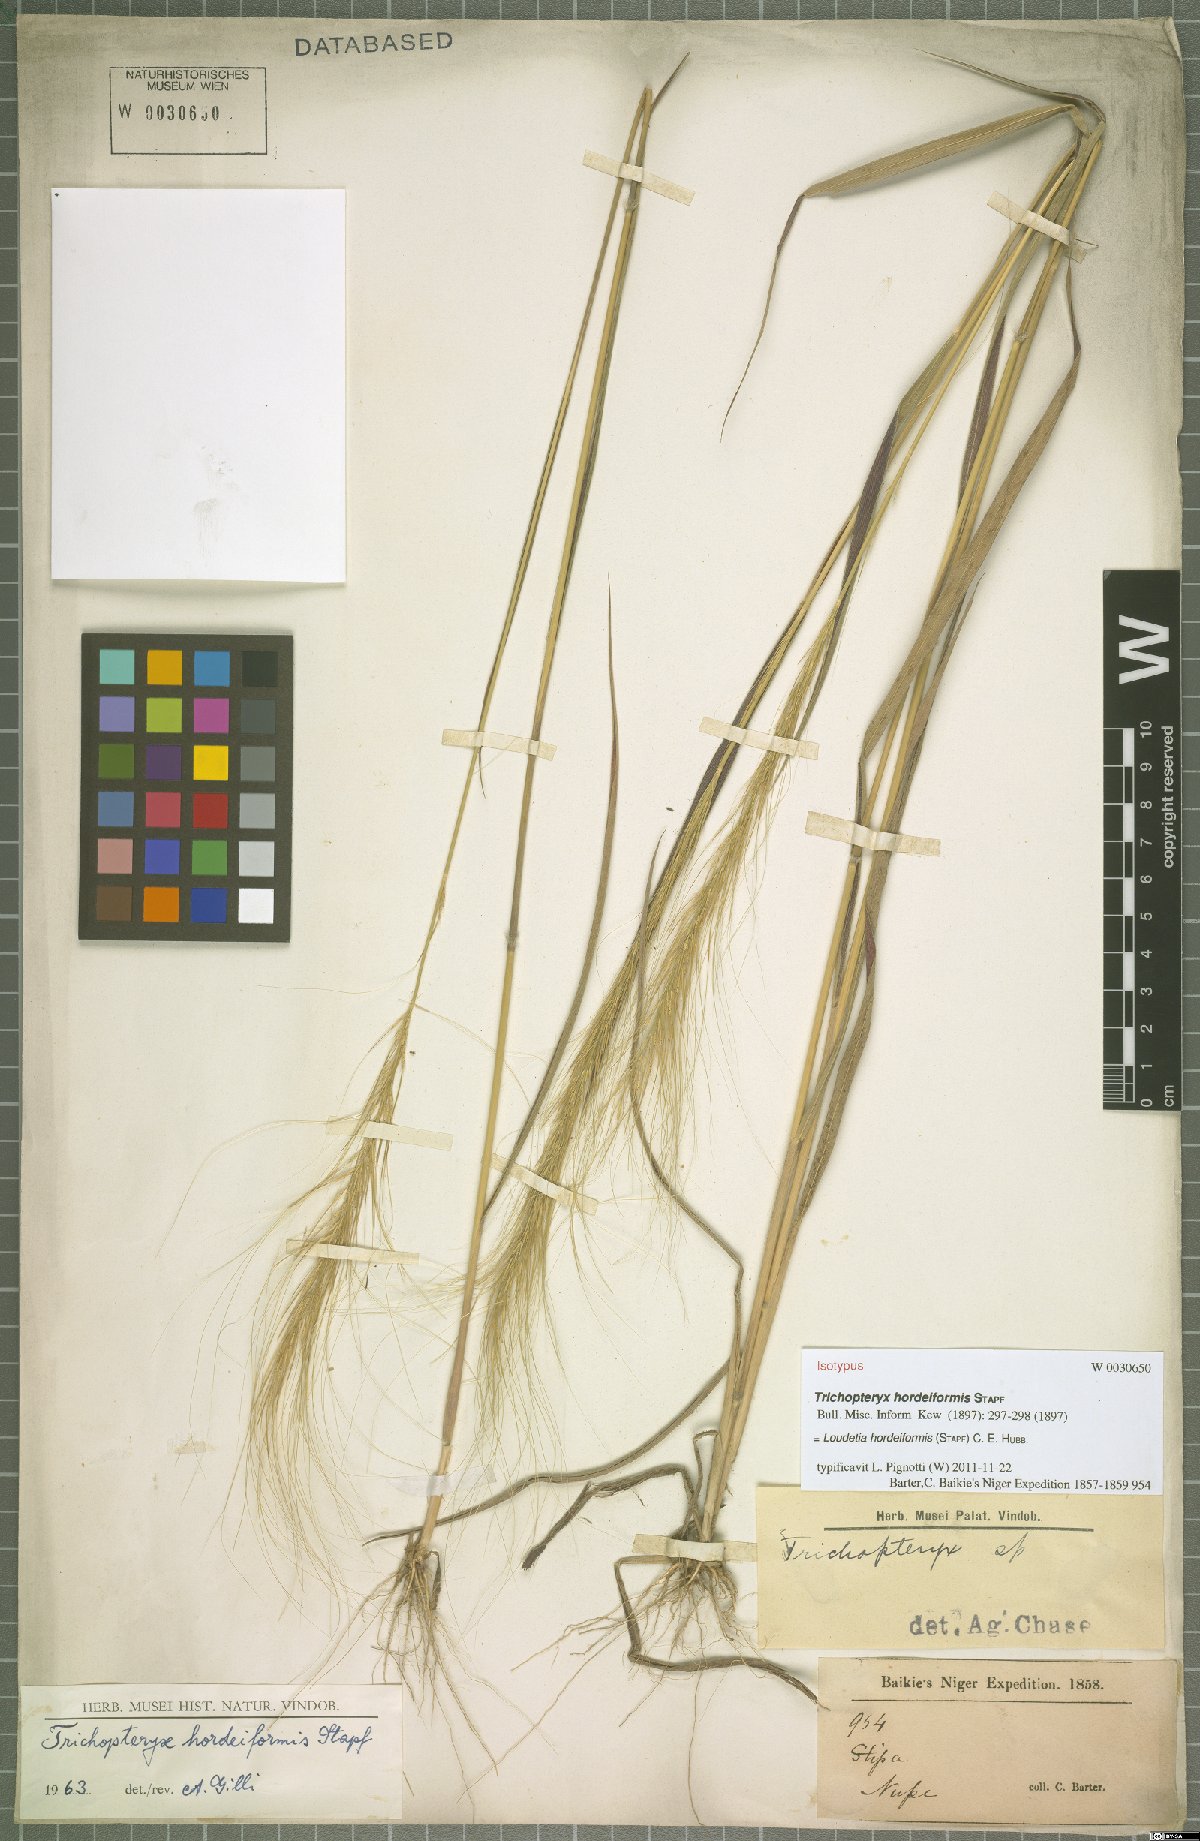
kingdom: Plantae
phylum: Tracheophyta
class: Liliopsida
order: Poales
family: Poaceae
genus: Loudetia
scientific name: Loudetia hordeiformis
